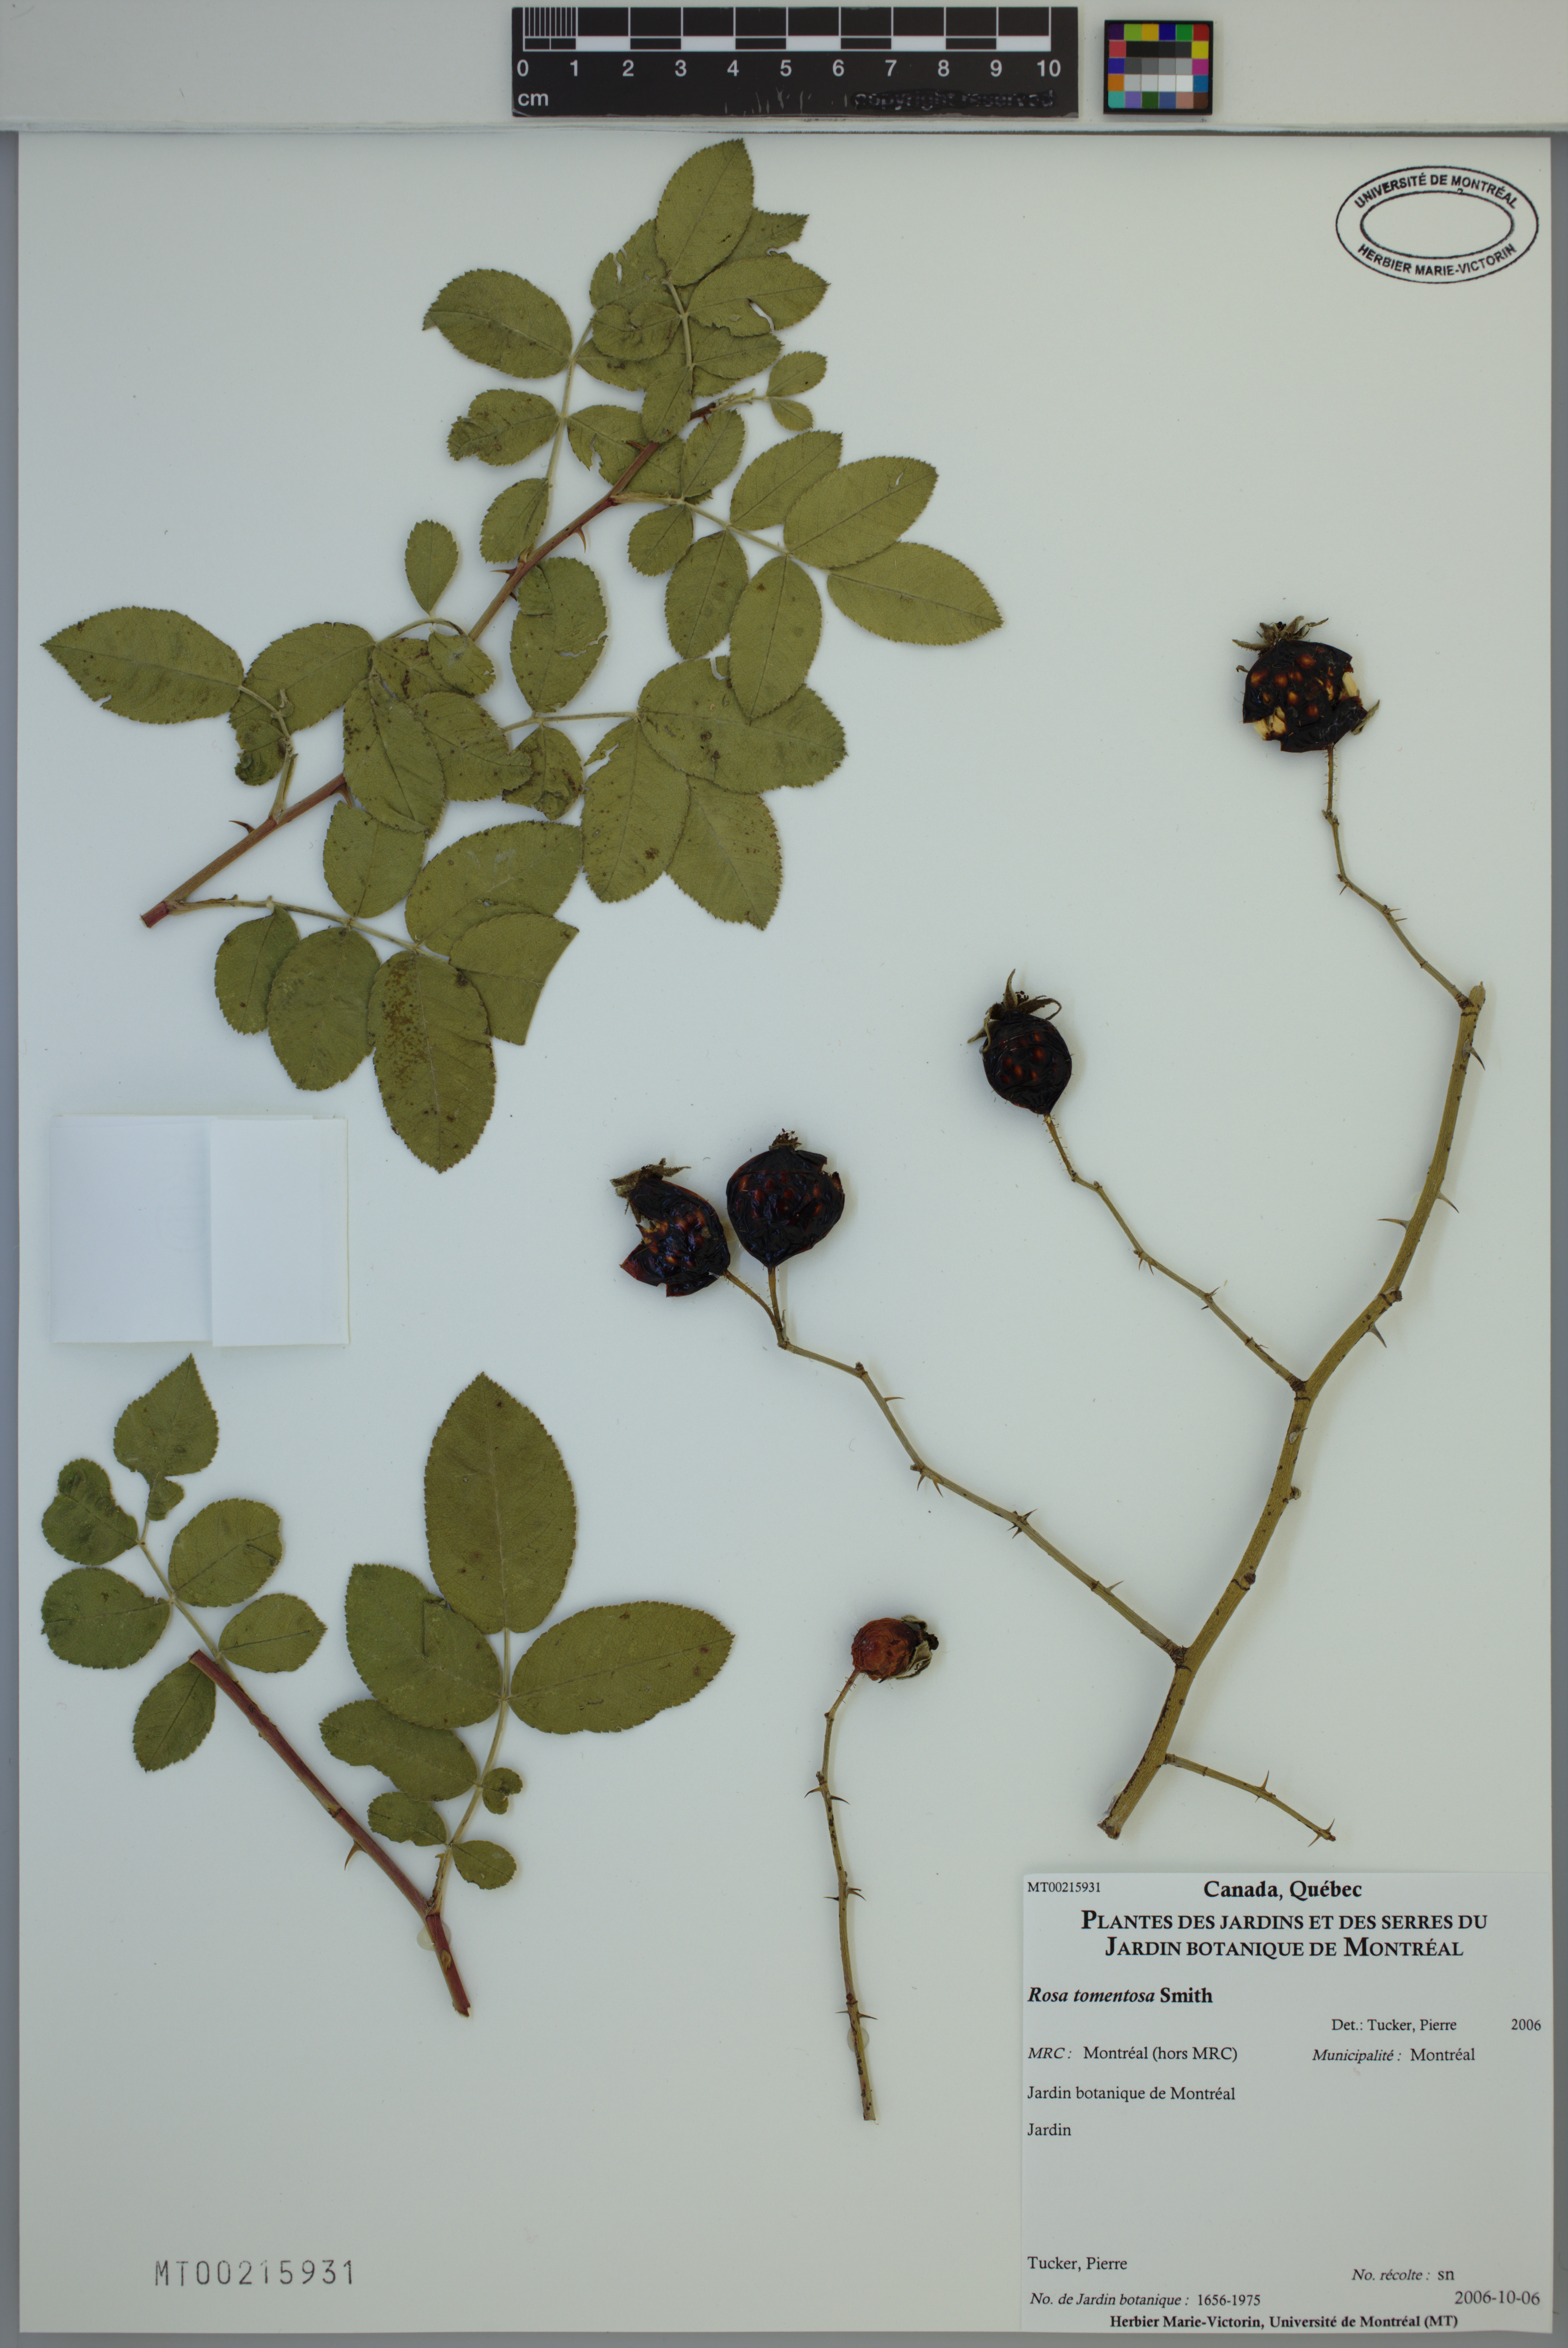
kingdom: Plantae
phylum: Tracheophyta
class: Magnoliopsida
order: Rosales
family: Rosaceae
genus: Rosa
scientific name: Rosa tomentosa
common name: Downy rose
